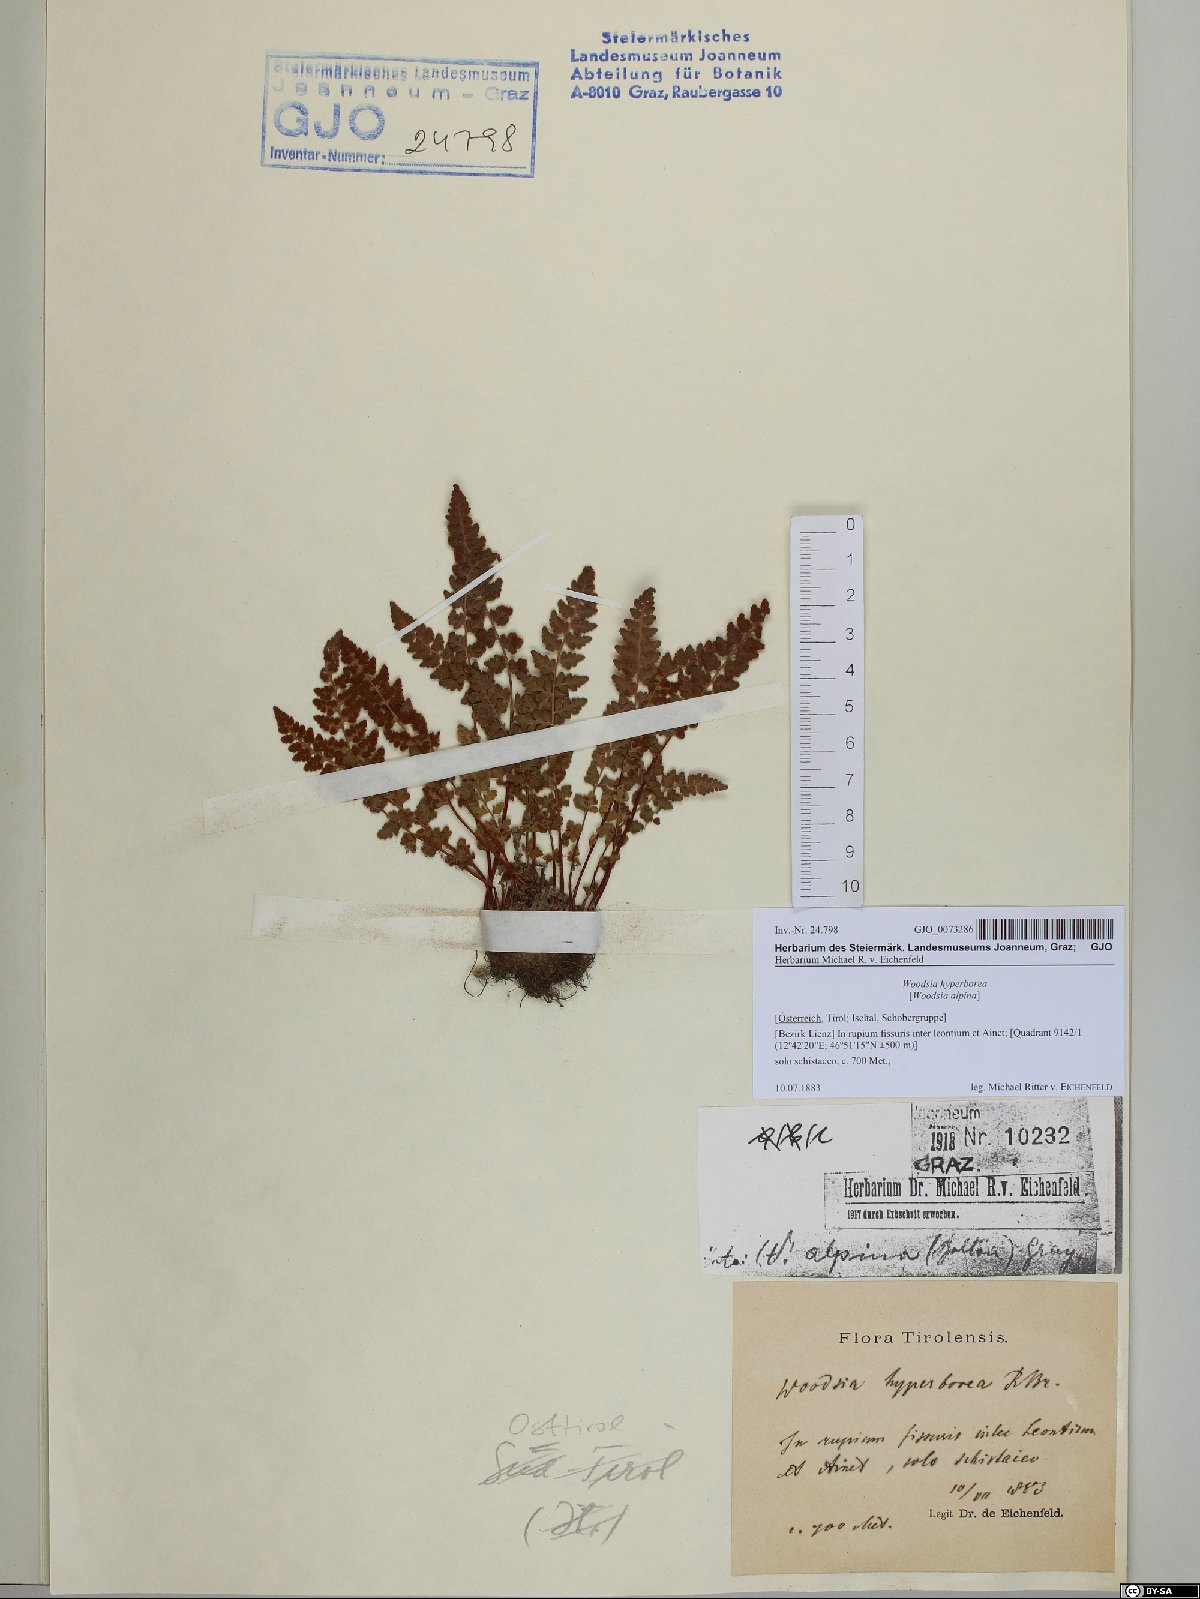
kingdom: Plantae
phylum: Tracheophyta
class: Polypodiopsida
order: Polypodiales
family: Woodsiaceae
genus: Woodsia
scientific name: Woodsia alpina
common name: Alpine woodsia
